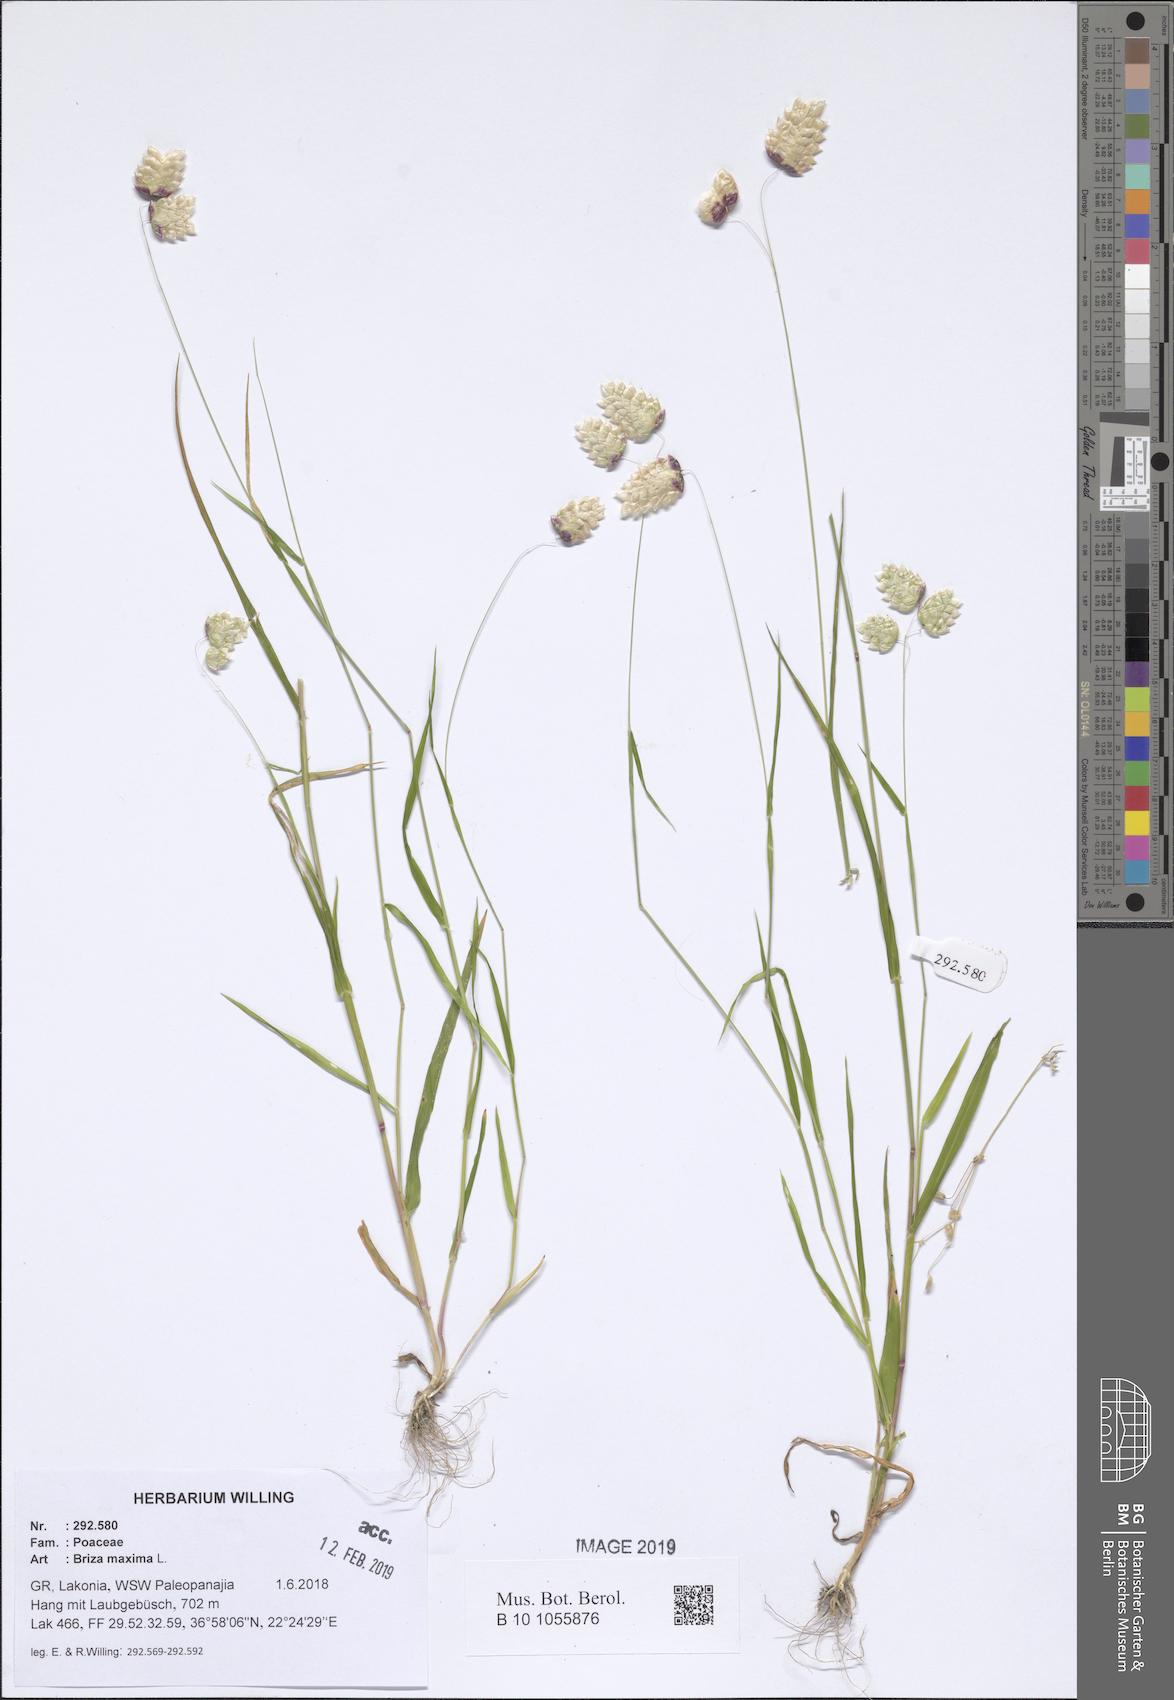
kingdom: Plantae
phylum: Tracheophyta
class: Liliopsida
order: Poales
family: Poaceae
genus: Briza
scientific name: Briza maxima
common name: Big quakinggrass
